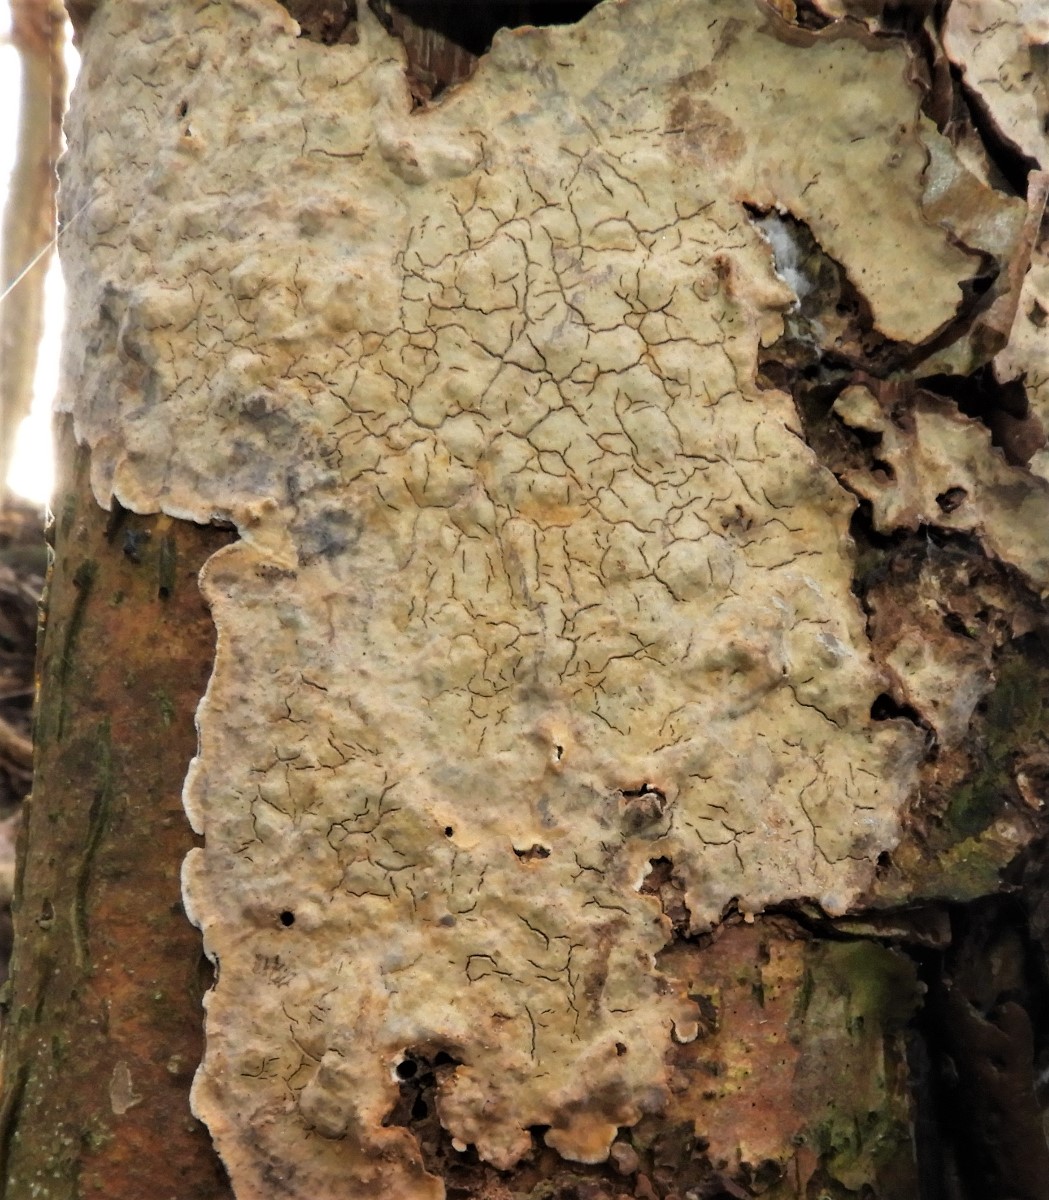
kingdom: Fungi
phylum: Basidiomycota
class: Agaricomycetes
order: Russulales
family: Stereaceae
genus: Stereum
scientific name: Stereum rugosum
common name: rynket lædersvamp
